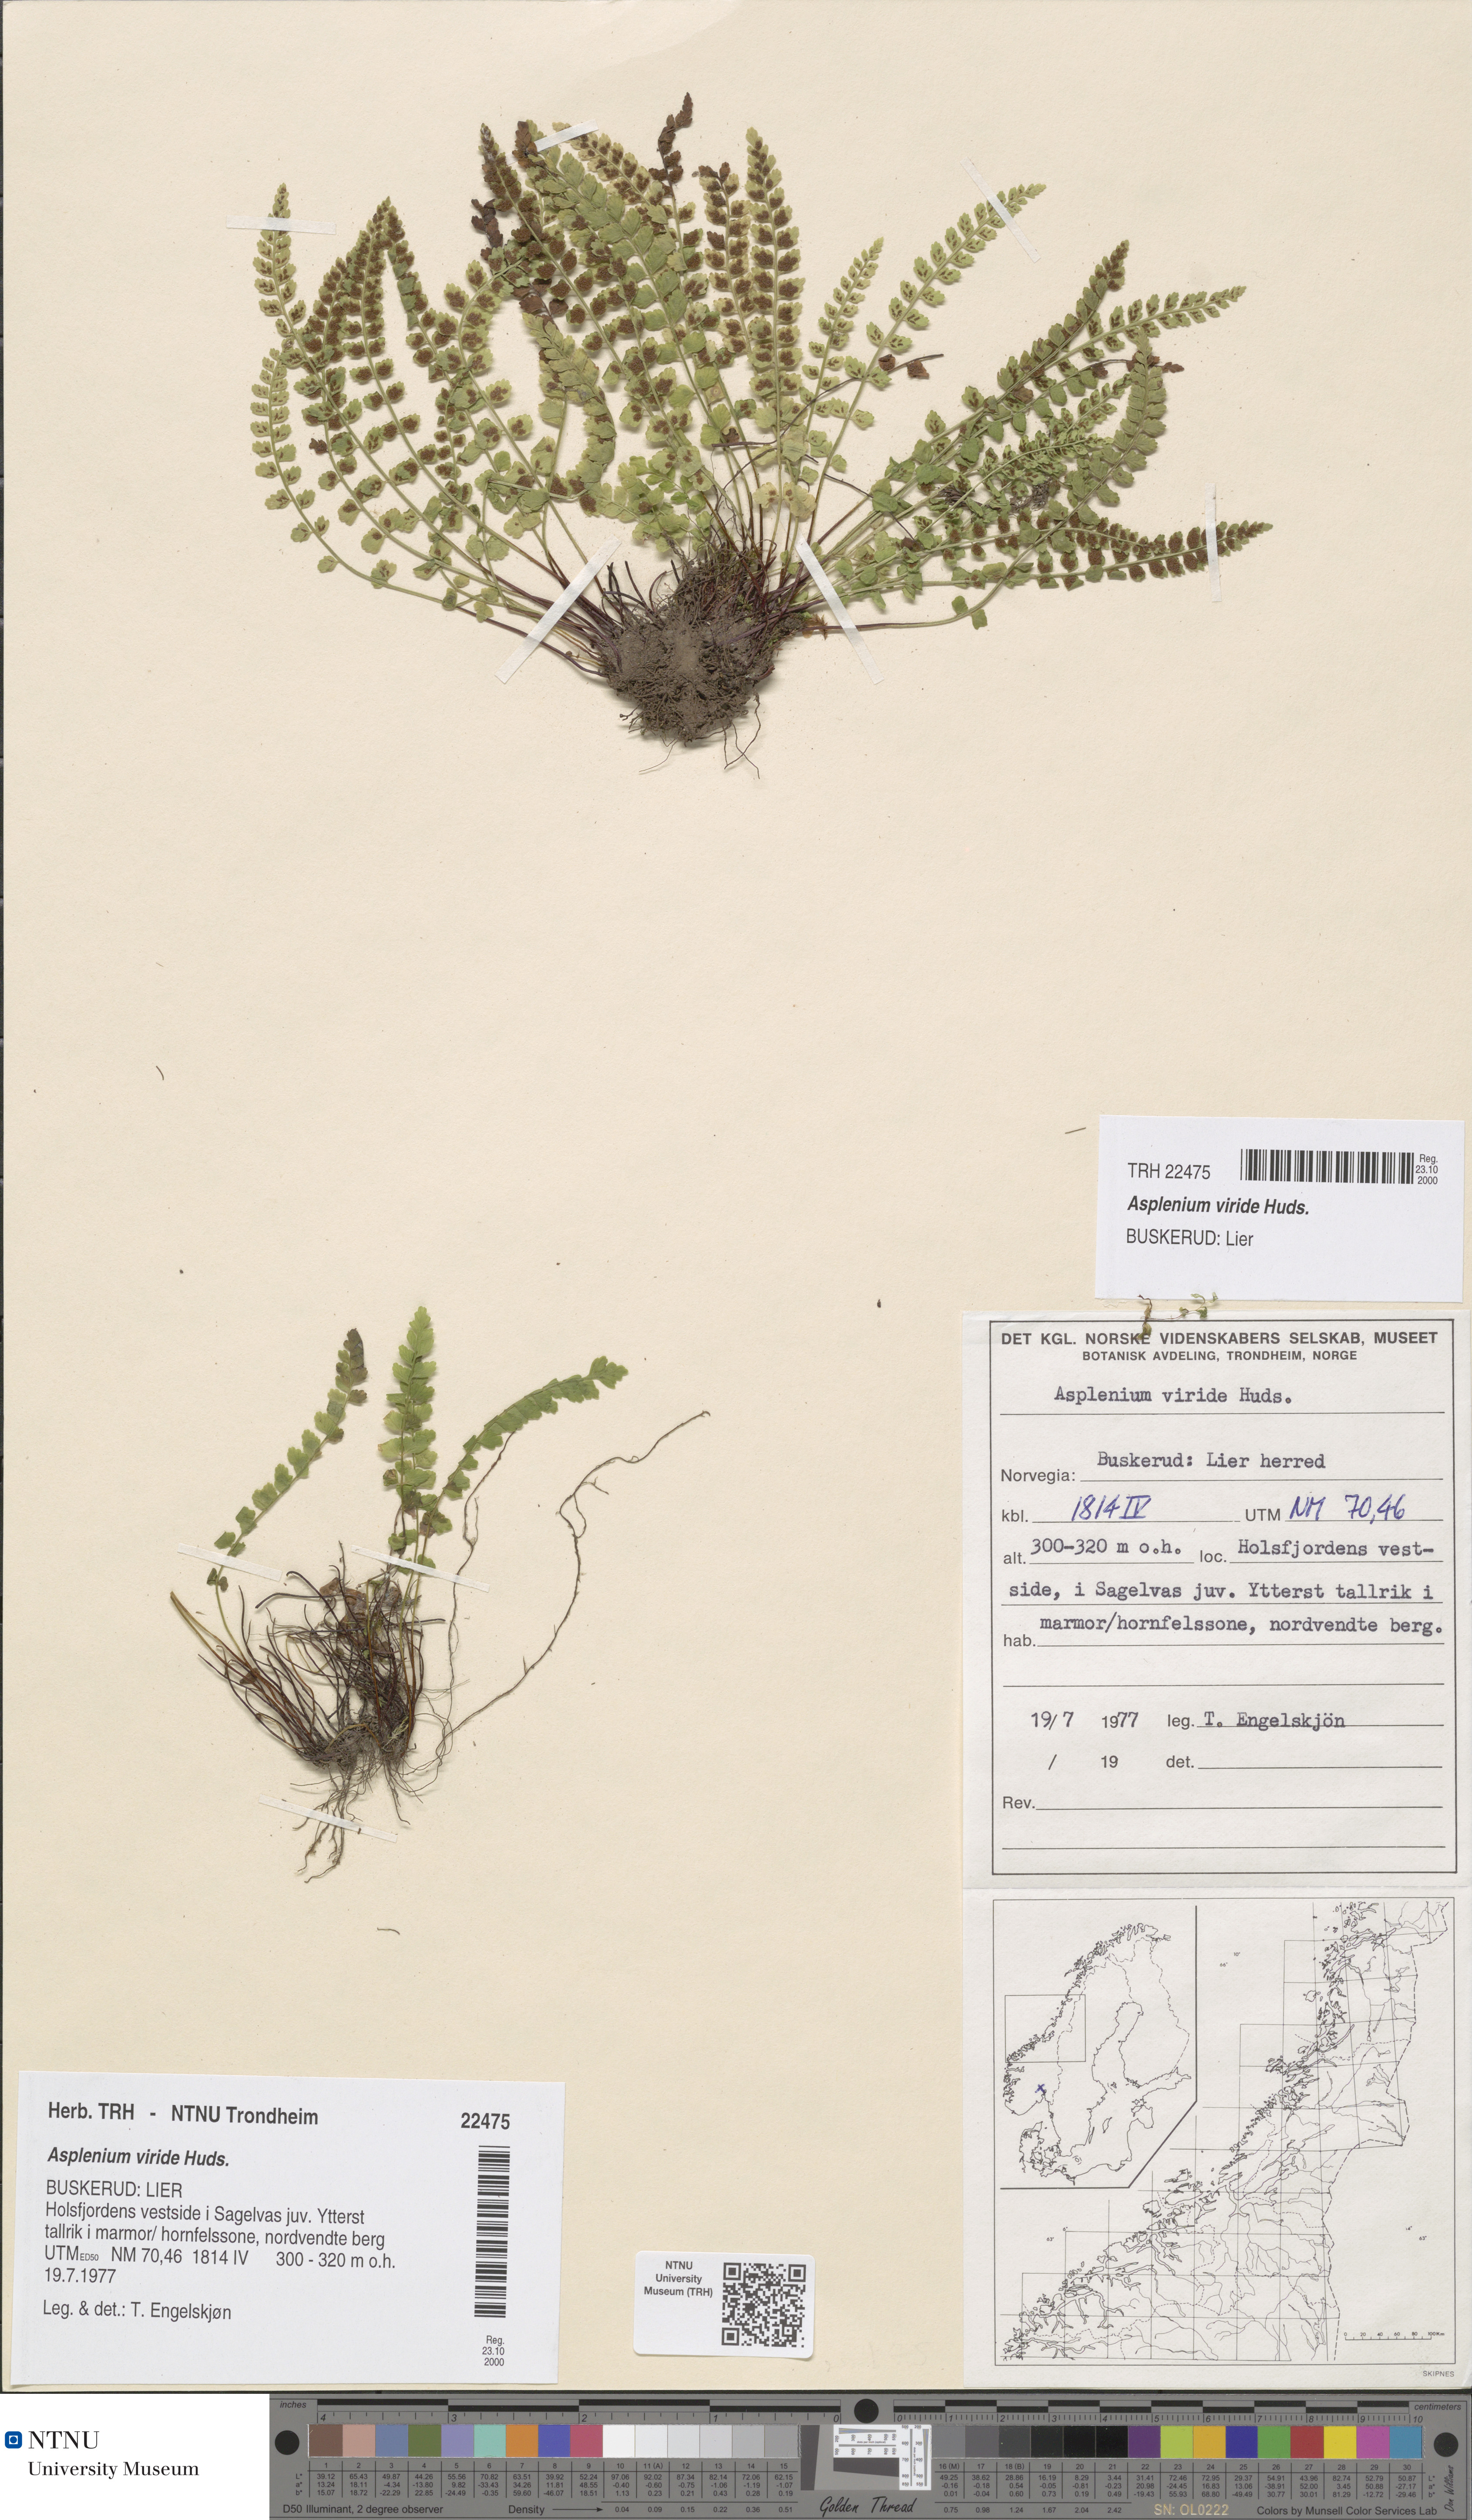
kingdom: Plantae
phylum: Tracheophyta
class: Polypodiopsida
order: Polypodiales
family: Aspleniaceae
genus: Asplenium
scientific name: Asplenium viride
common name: Green spleenwort
